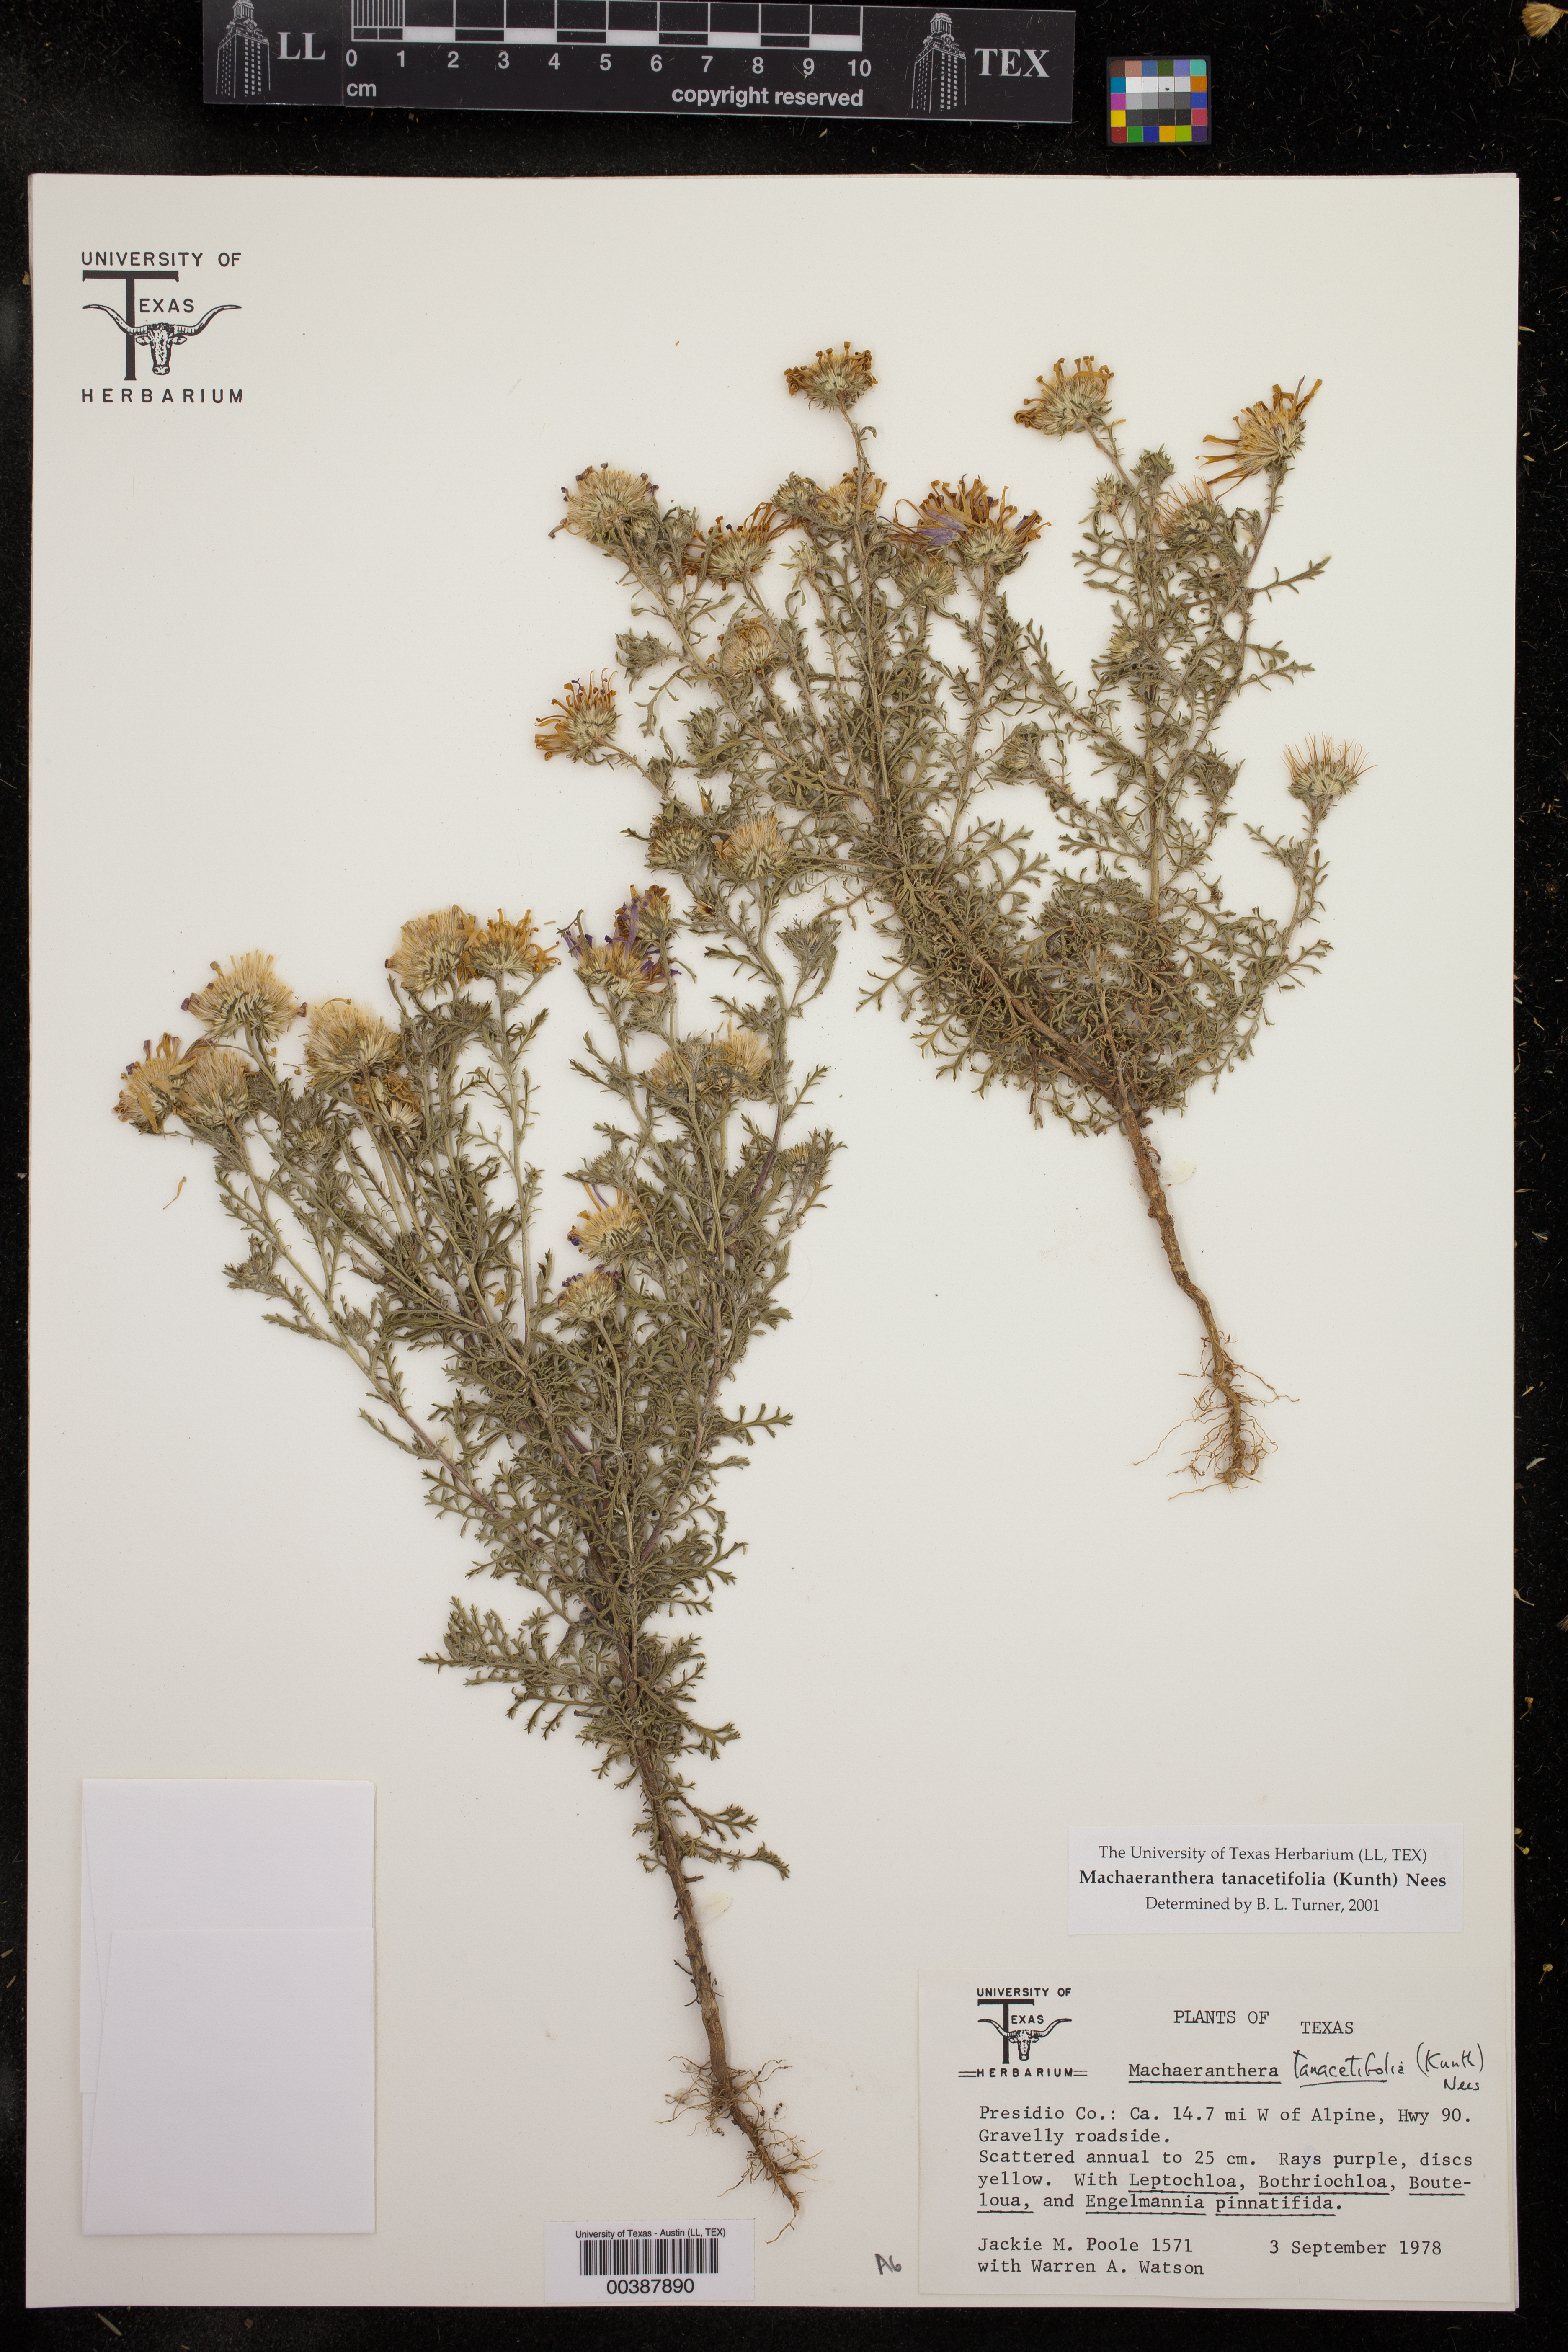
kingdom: Plantae
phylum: Tracheophyta
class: Magnoliopsida
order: Asterales
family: Asteraceae
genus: Machaeranthera
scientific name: Machaeranthera tanacetifolia
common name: Tansy-aster
